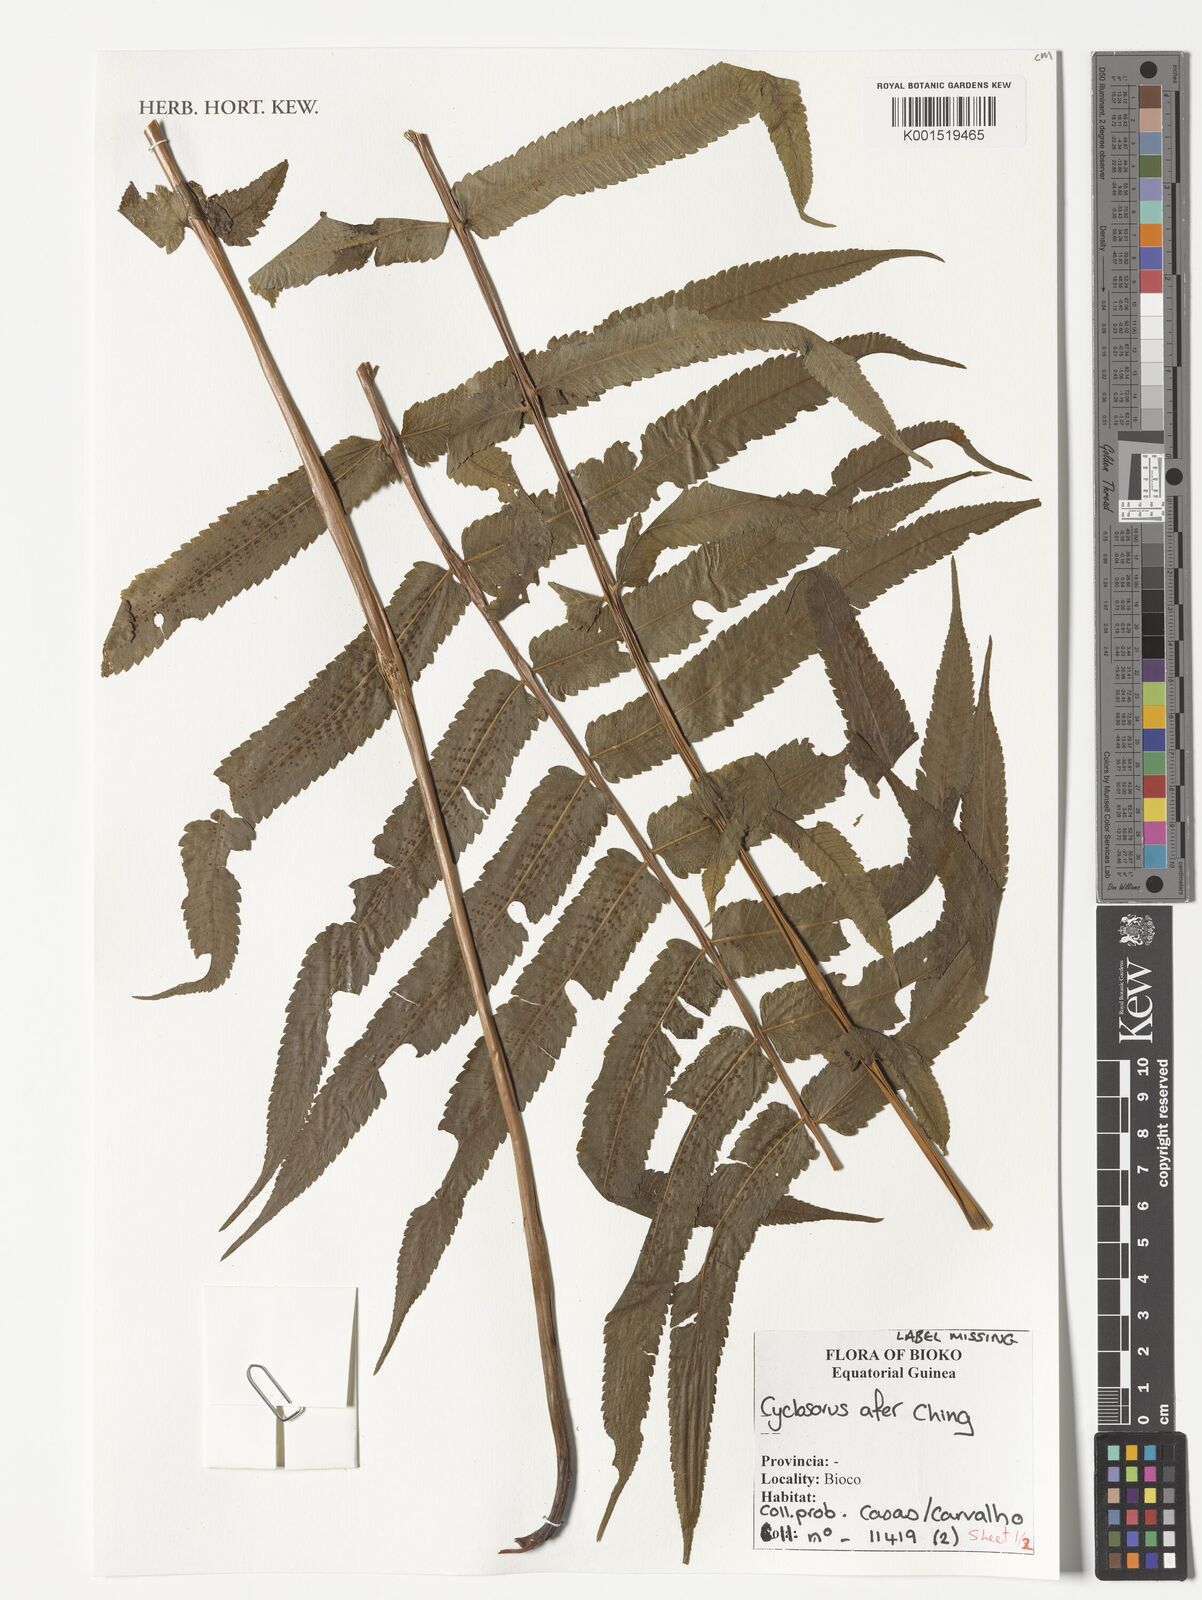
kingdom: Plantae
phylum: Tracheophyta
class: Polypodiopsida
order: Polypodiales
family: Thelypteridaceae
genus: Cyclosorus
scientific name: Cyclosorus
